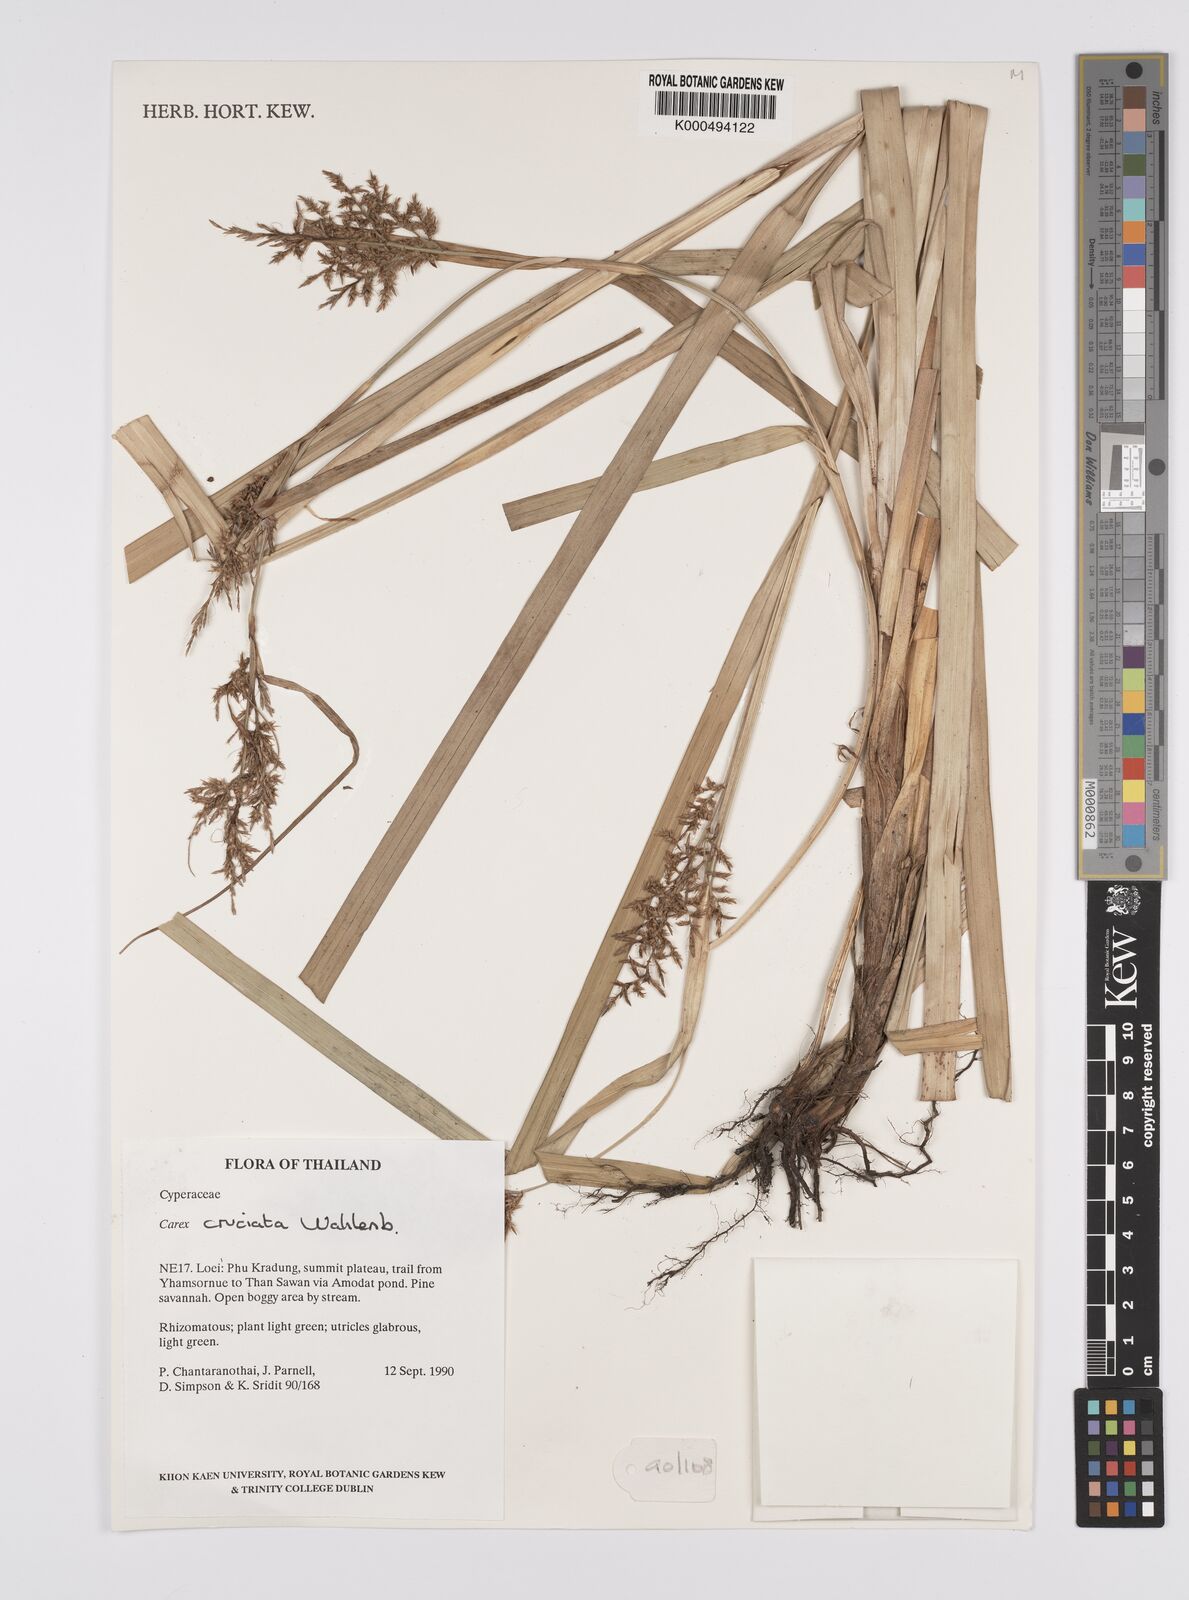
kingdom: Plantae
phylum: Tracheophyta
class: Liliopsida
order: Poales
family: Cyperaceae
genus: Carex
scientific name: Carex cruciata
